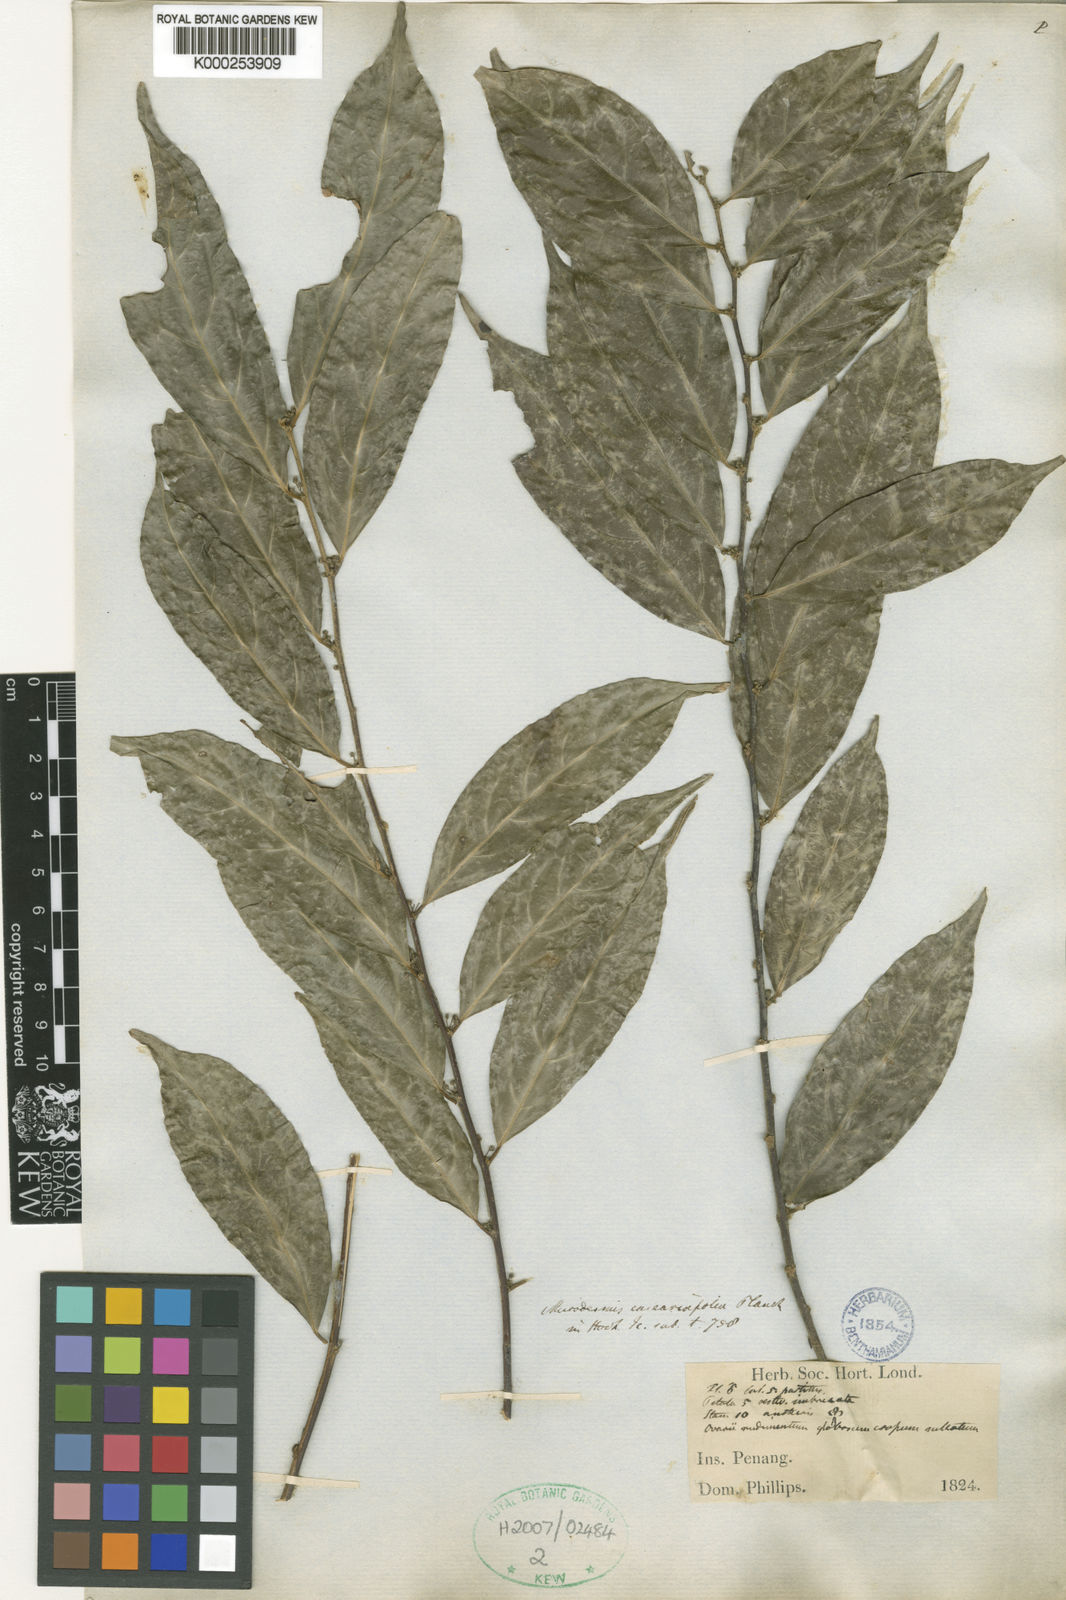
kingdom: Plantae
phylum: Tracheophyta
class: Magnoliopsida
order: Malpighiales
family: Pandaceae
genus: Microdesmis
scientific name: Microdesmis
